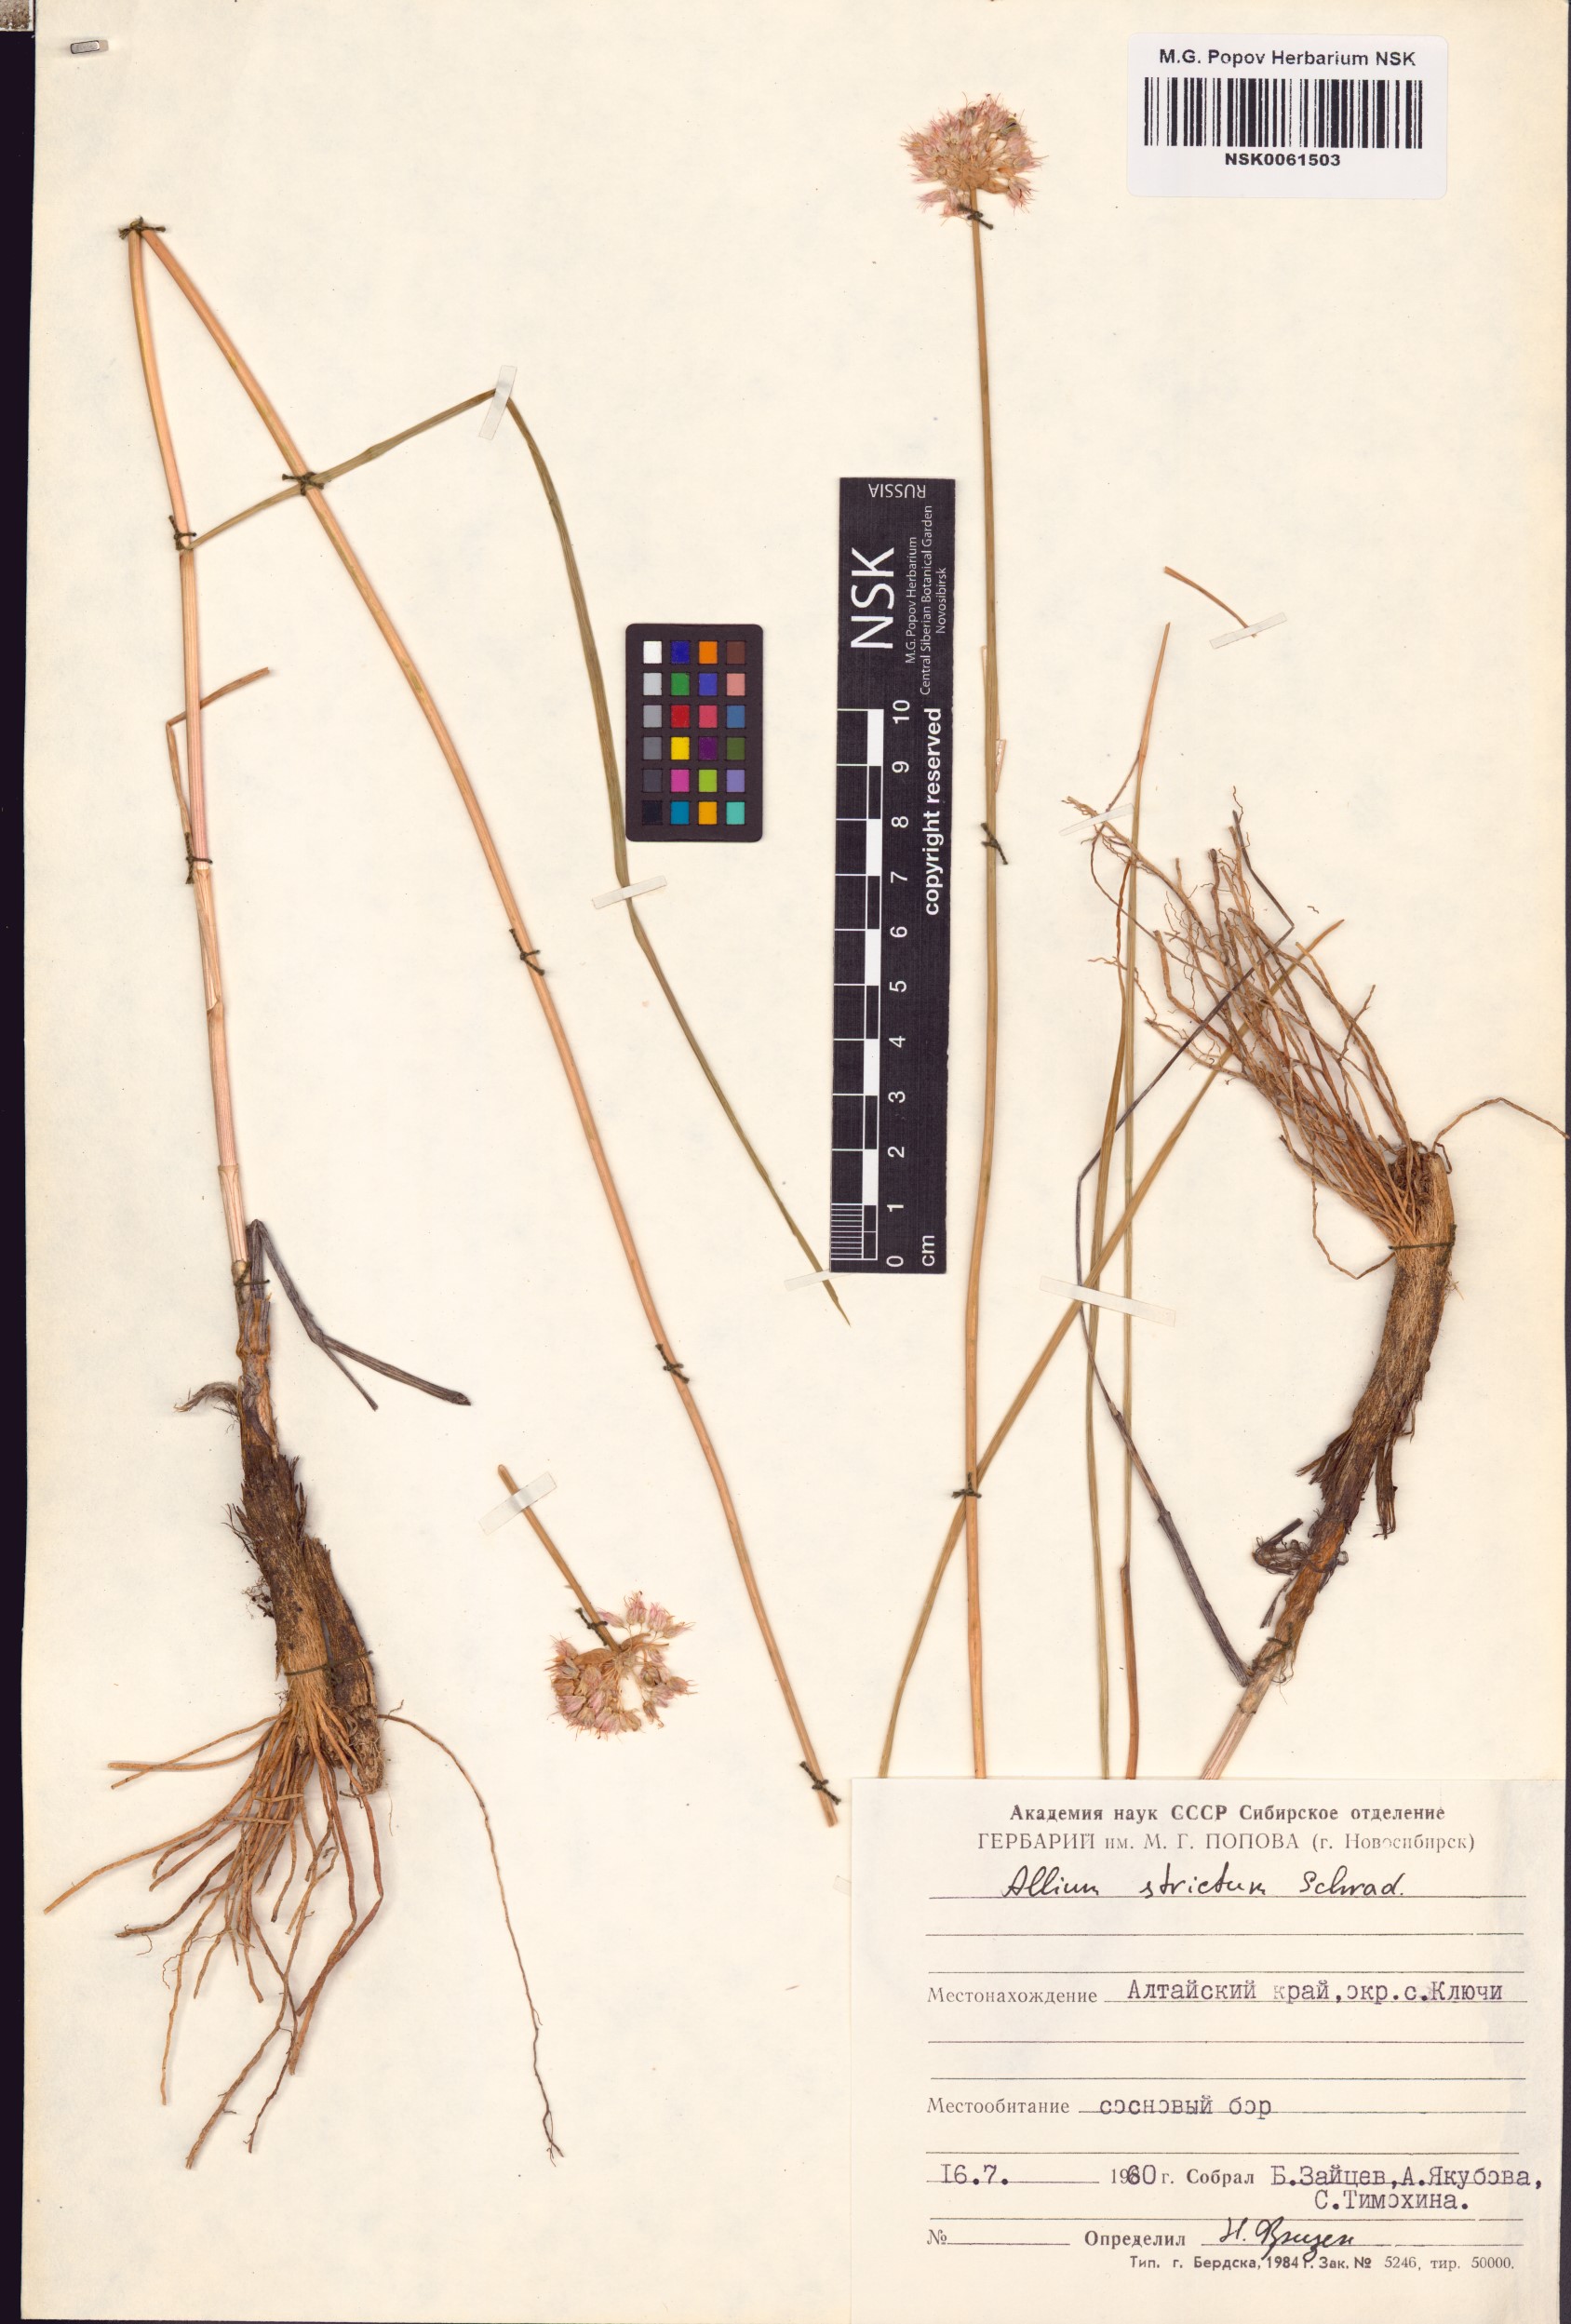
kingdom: Plantae
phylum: Tracheophyta
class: Liliopsida
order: Asparagales
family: Amaryllidaceae
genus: Allium
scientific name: Allium strictum
